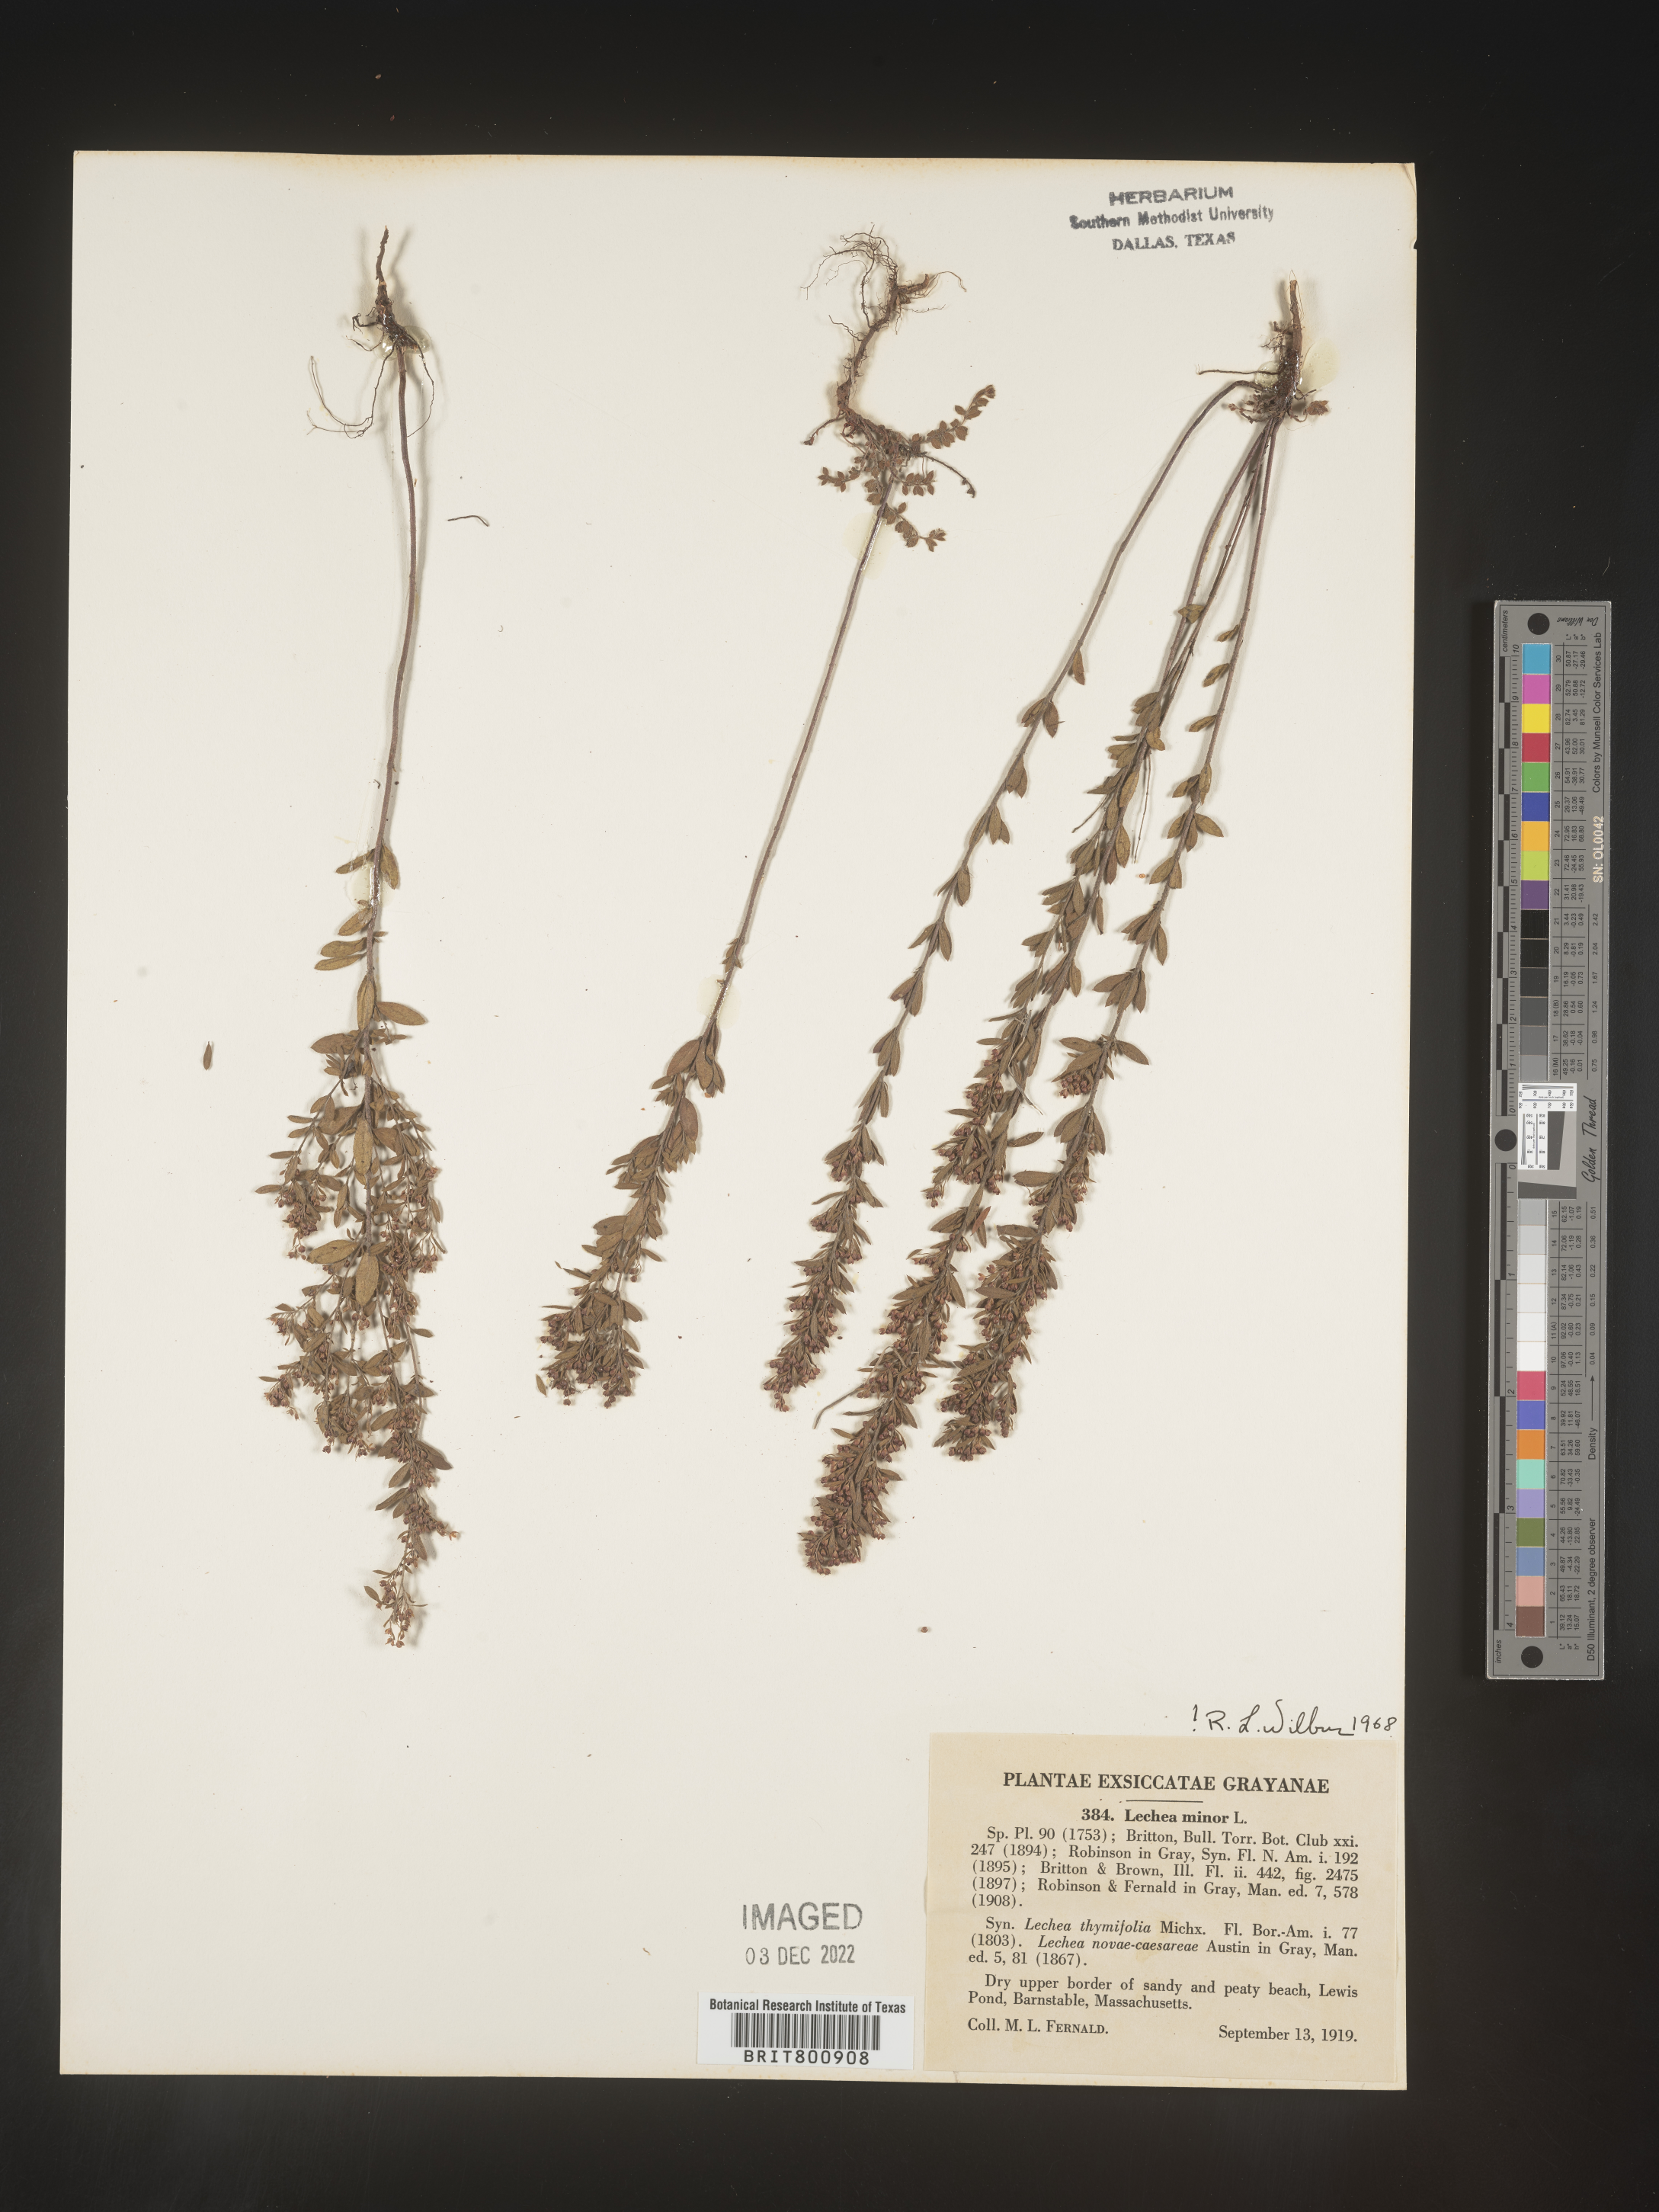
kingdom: Plantae
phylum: Tracheophyta
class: Magnoliopsida
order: Malvales
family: Cistaceae
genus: Lechea
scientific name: Lechea minor
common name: Thyme-leaf pinweed
